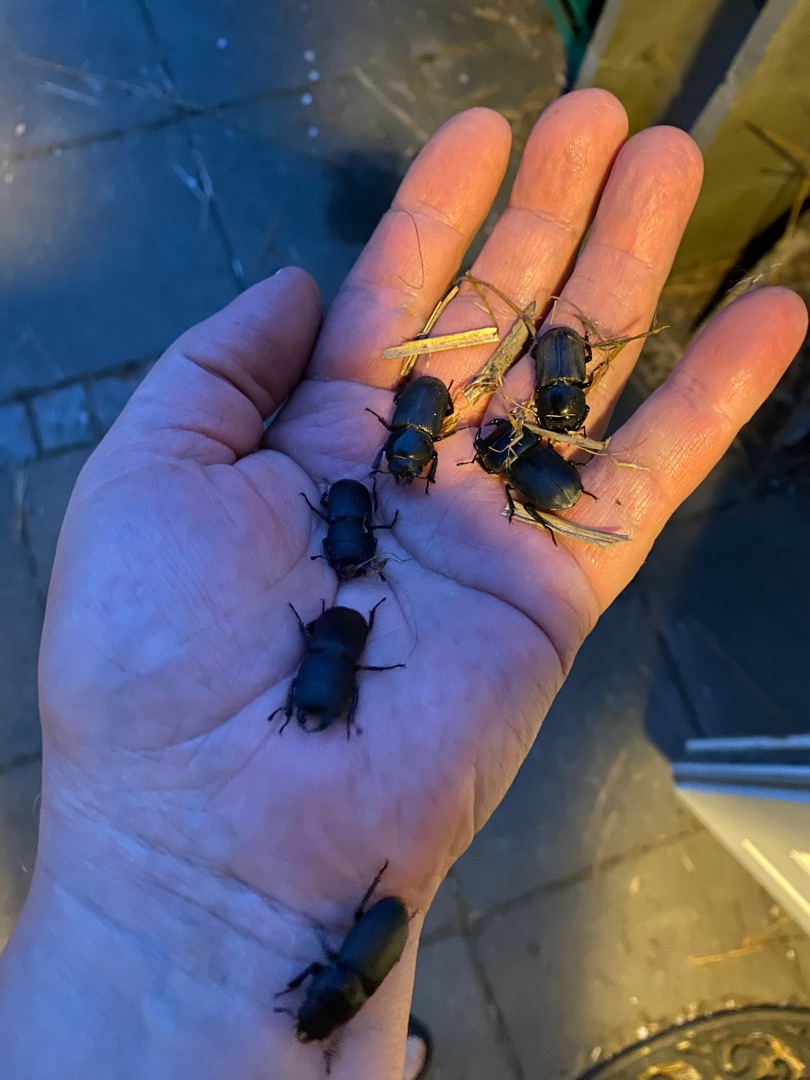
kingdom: Animalia
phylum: Arthropoda
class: Insecta
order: Coleoptera
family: Lucanidae
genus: Dorcus
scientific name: Dorcus parallelipipedus
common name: Bøghjort
